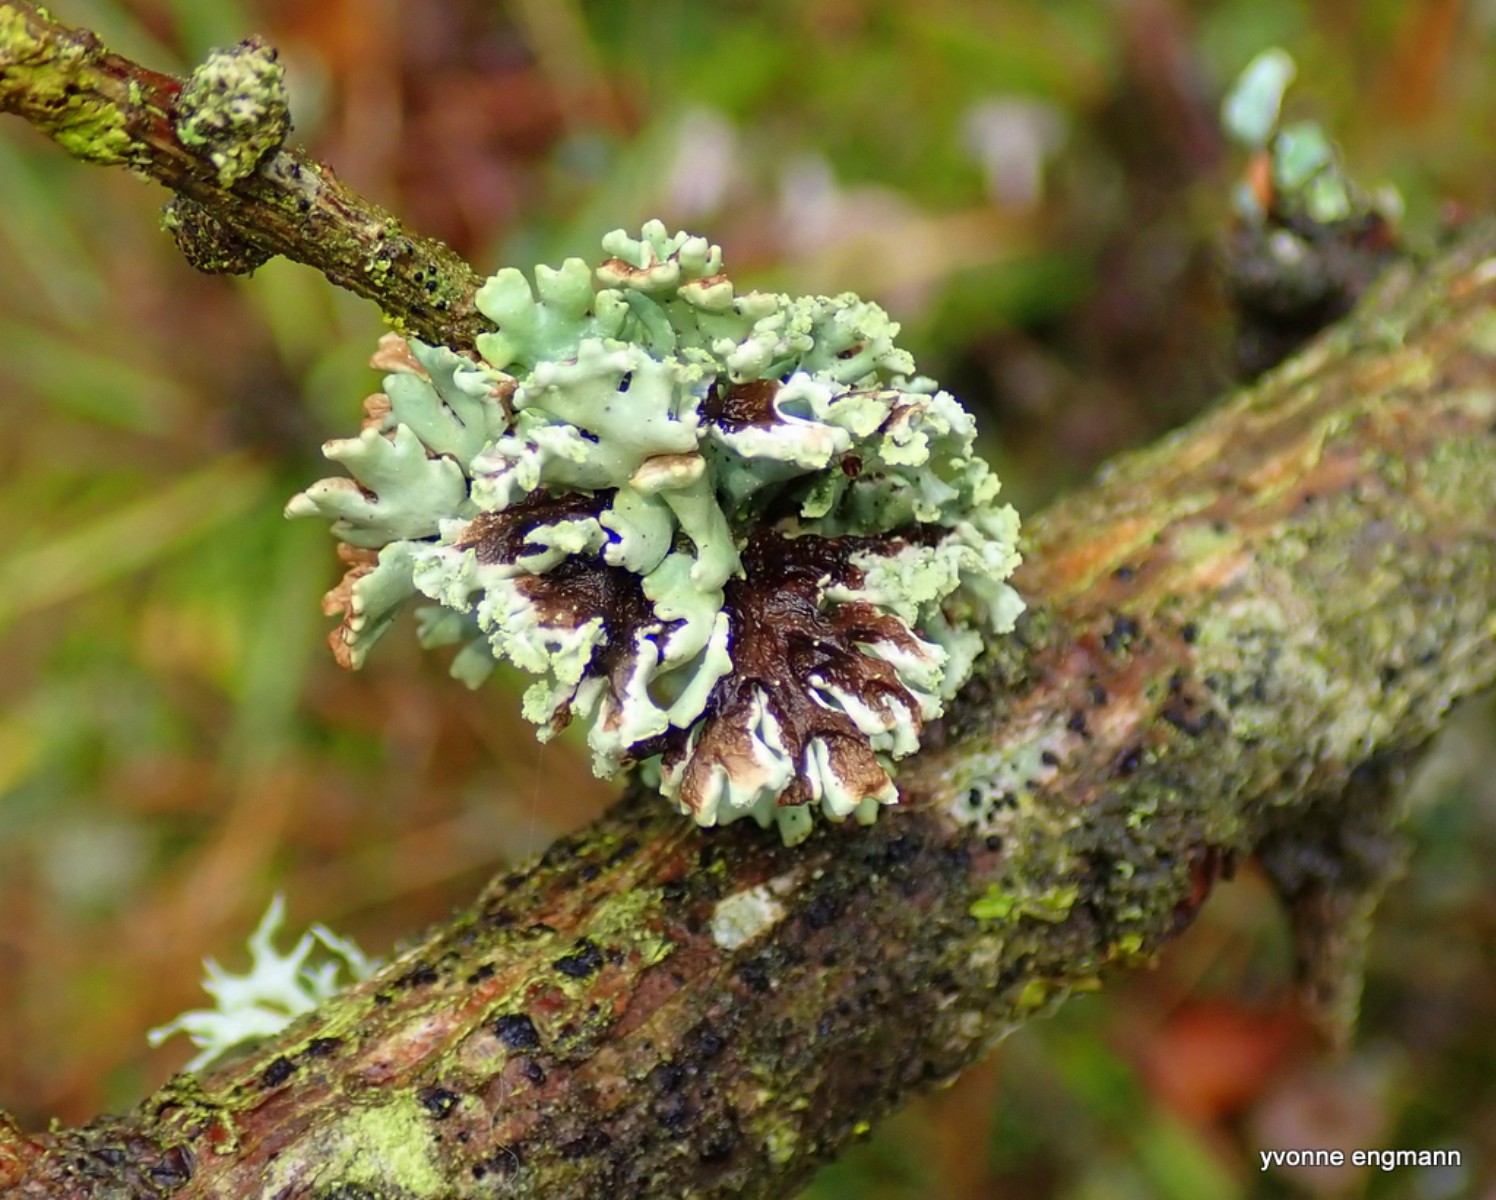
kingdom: Fungi
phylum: Ascomycota
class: Lecanoromycetes
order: Lecanorales
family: Parmeliaceae
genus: Hypogymnia
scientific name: Hypogymnia physodes
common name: almindelig kvistlav
